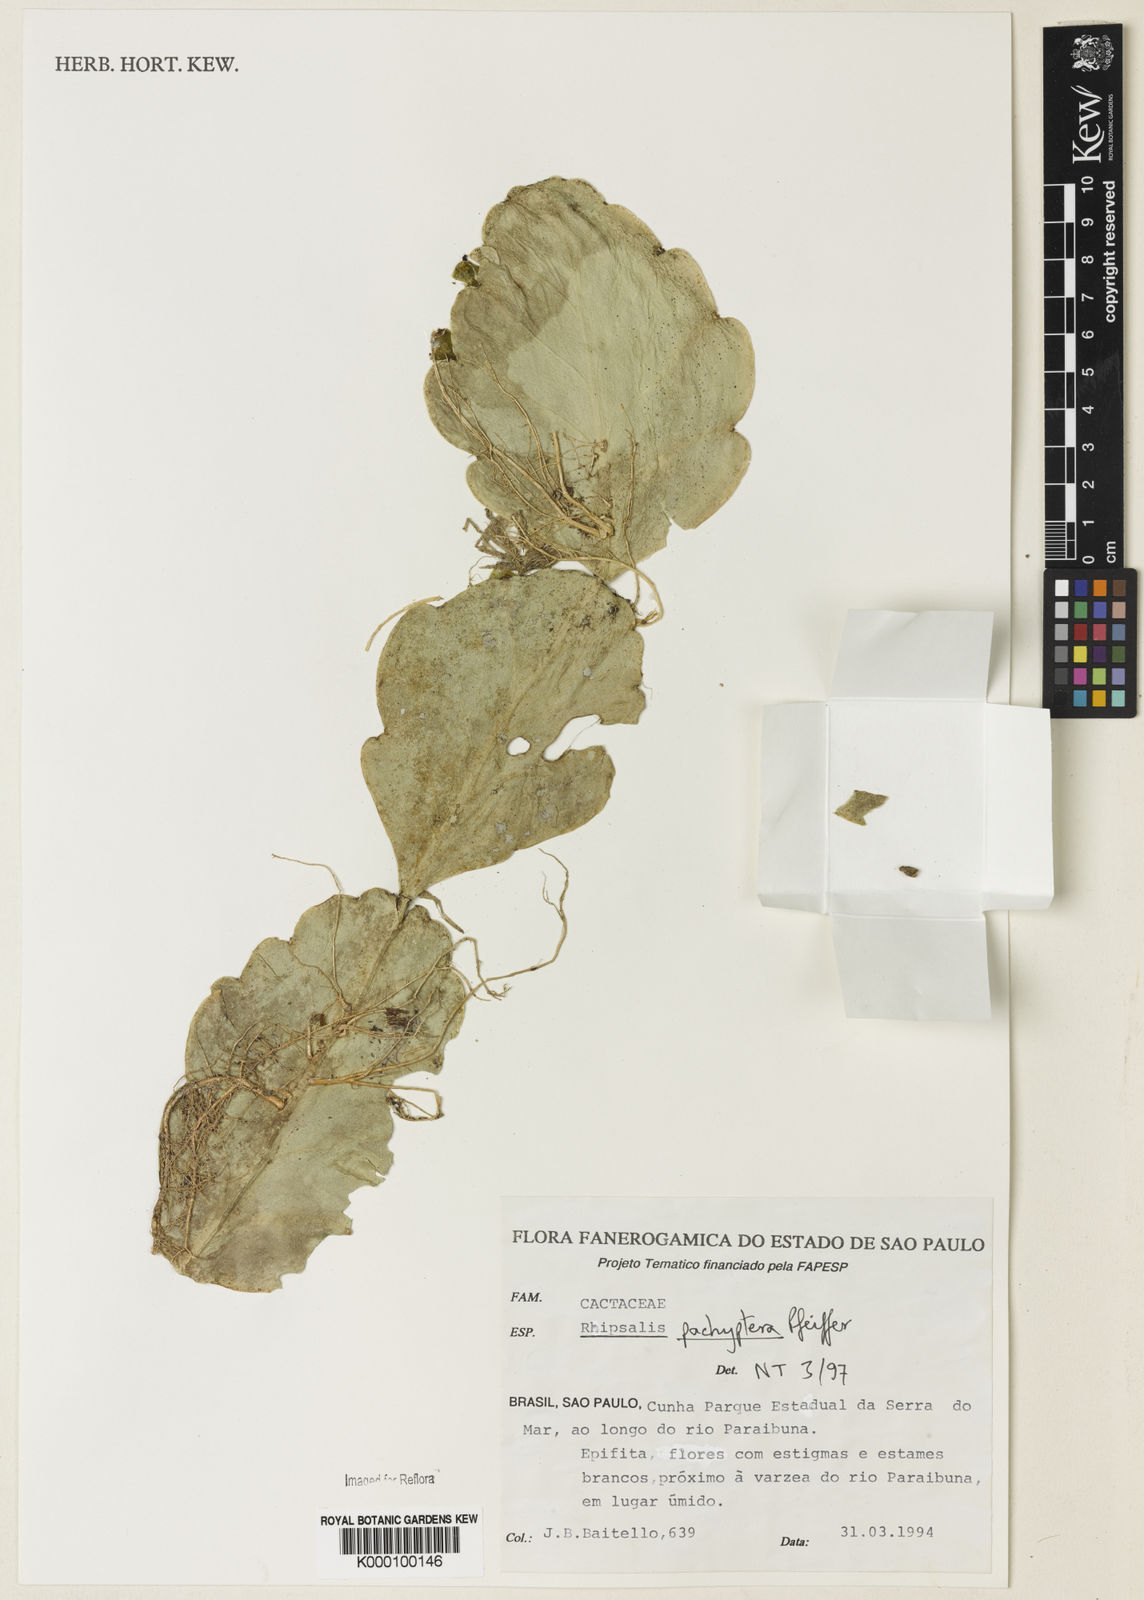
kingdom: Plantae
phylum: Tracheophyta
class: Magnoliopsida
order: Caryophyllales
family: Cactaceae
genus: Rhipsalis
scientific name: Rhipsalis pachyptera
